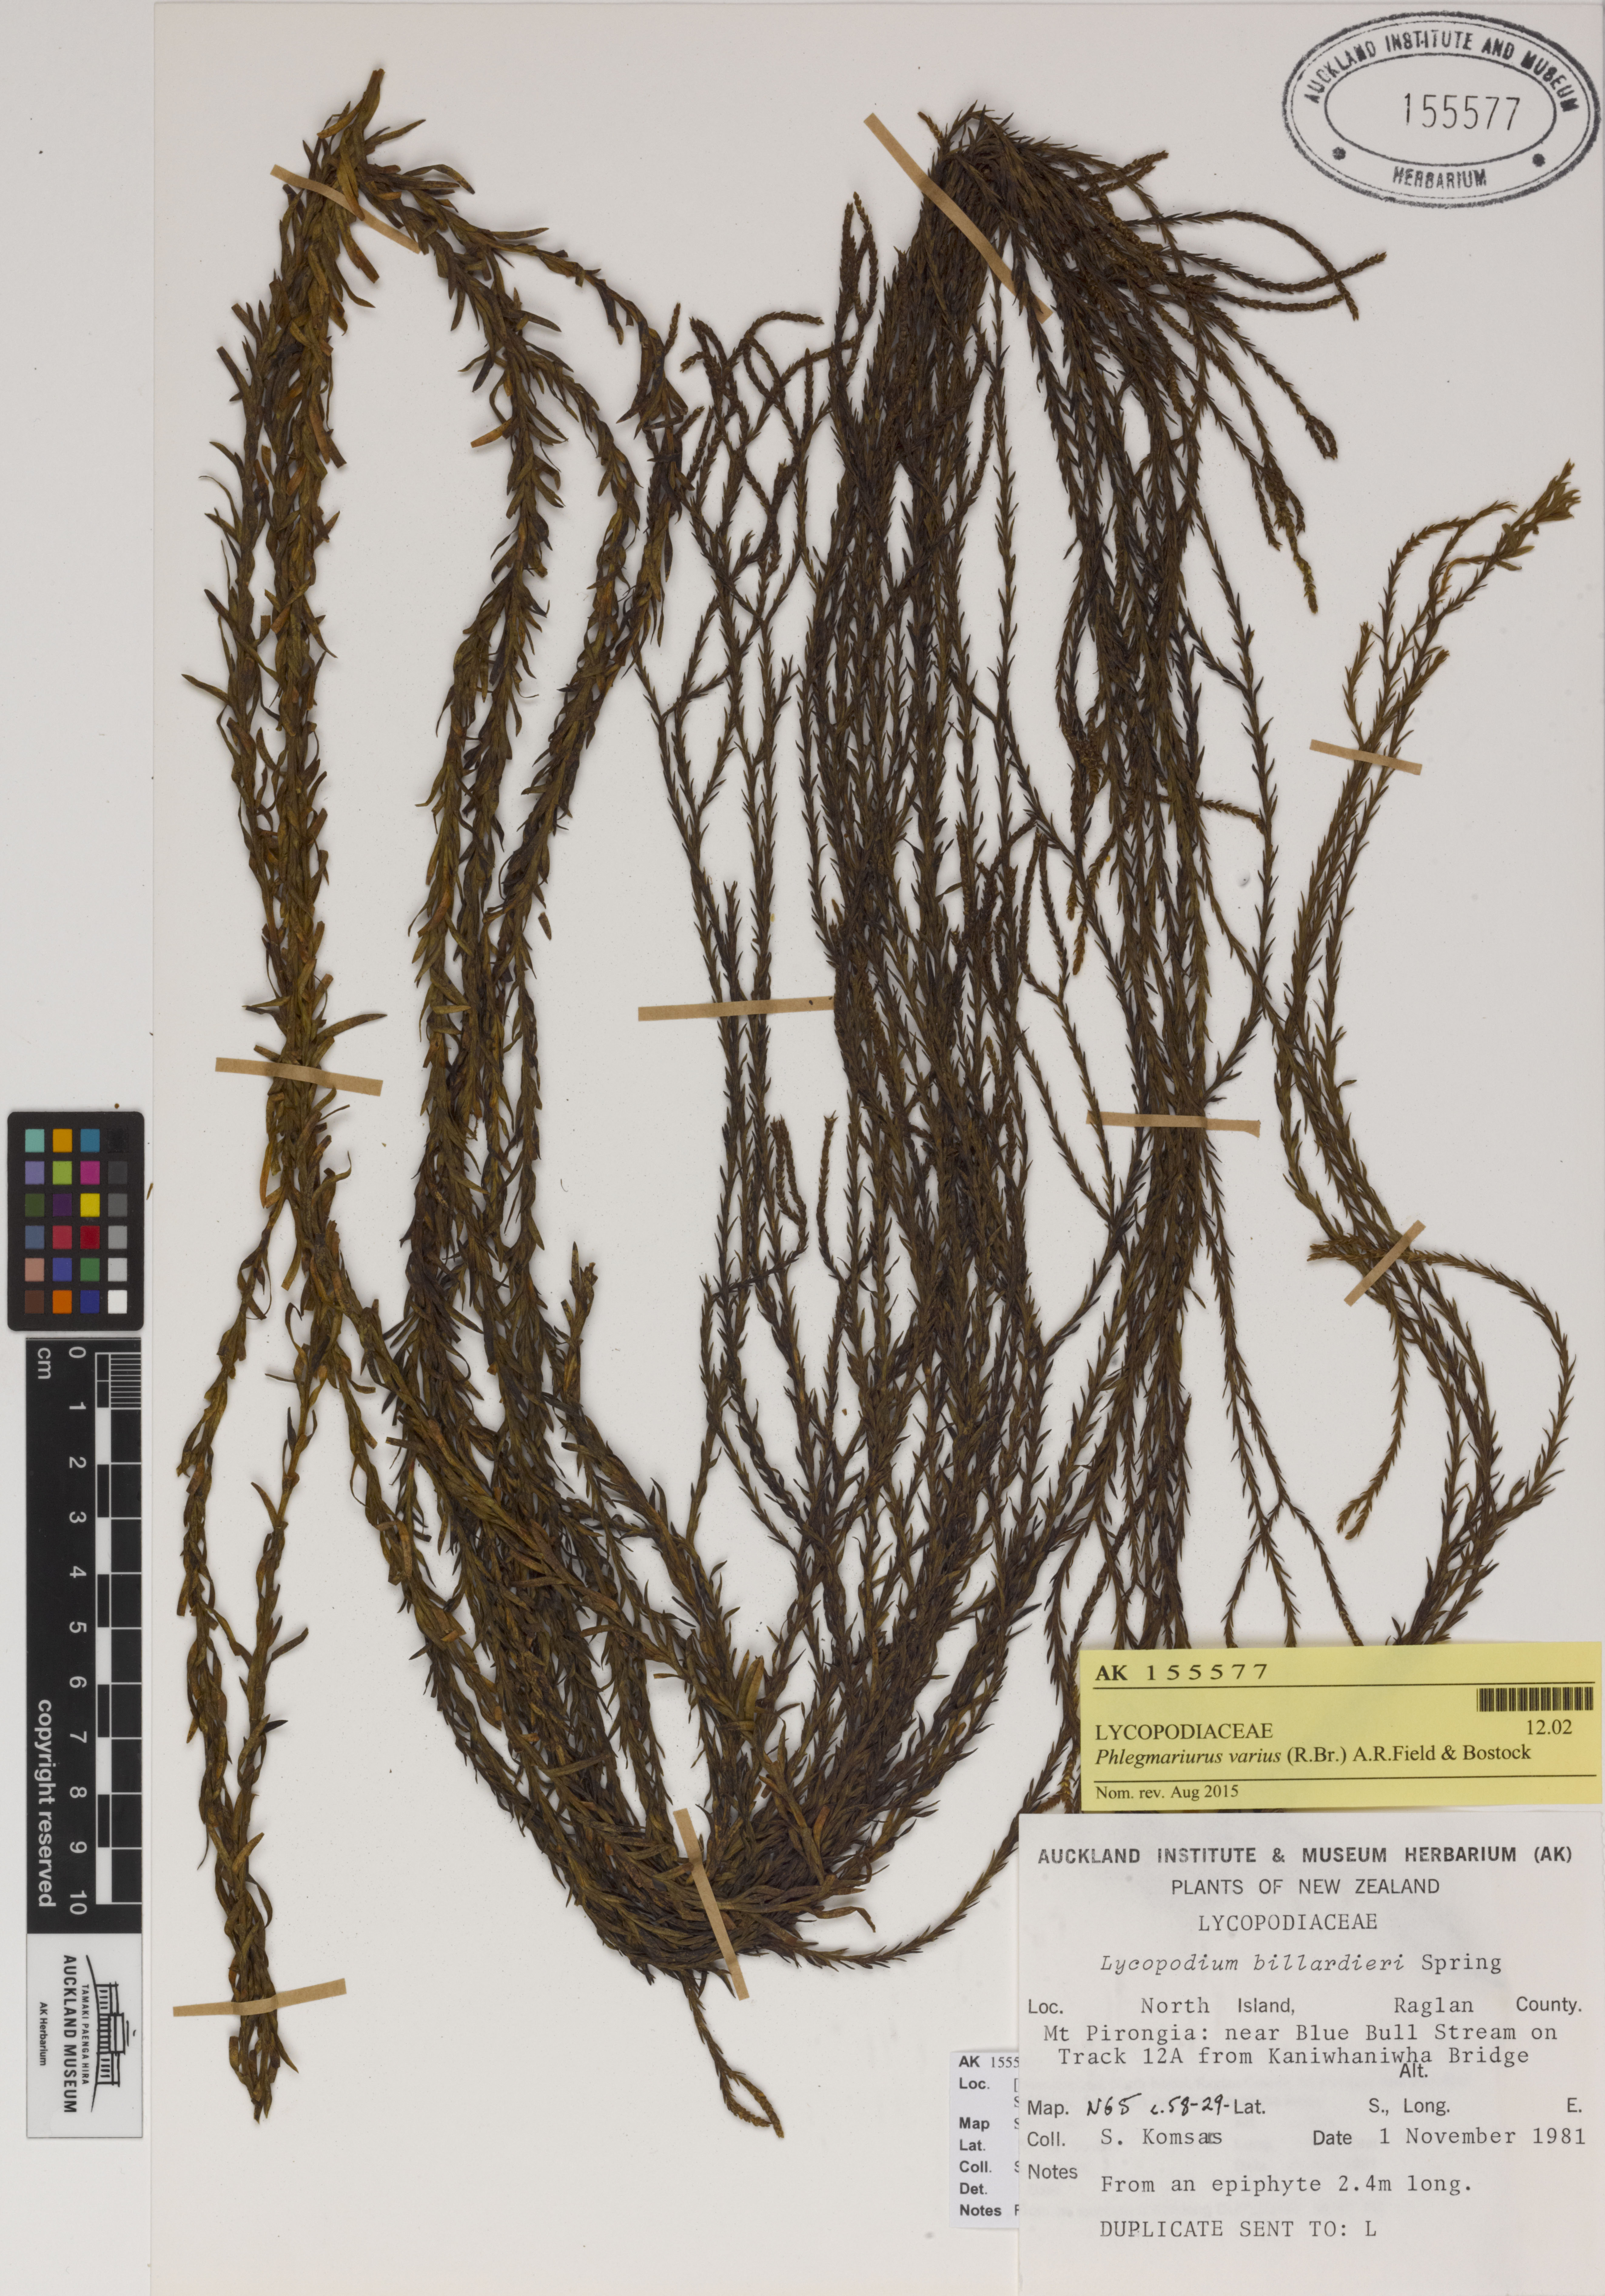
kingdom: Plantae
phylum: Tracheophyta
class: Lycopodiopsida
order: Lycopodiales
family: Lycopodiaceae
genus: Phlegmariurus
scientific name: Phlegmariurus billardierei
